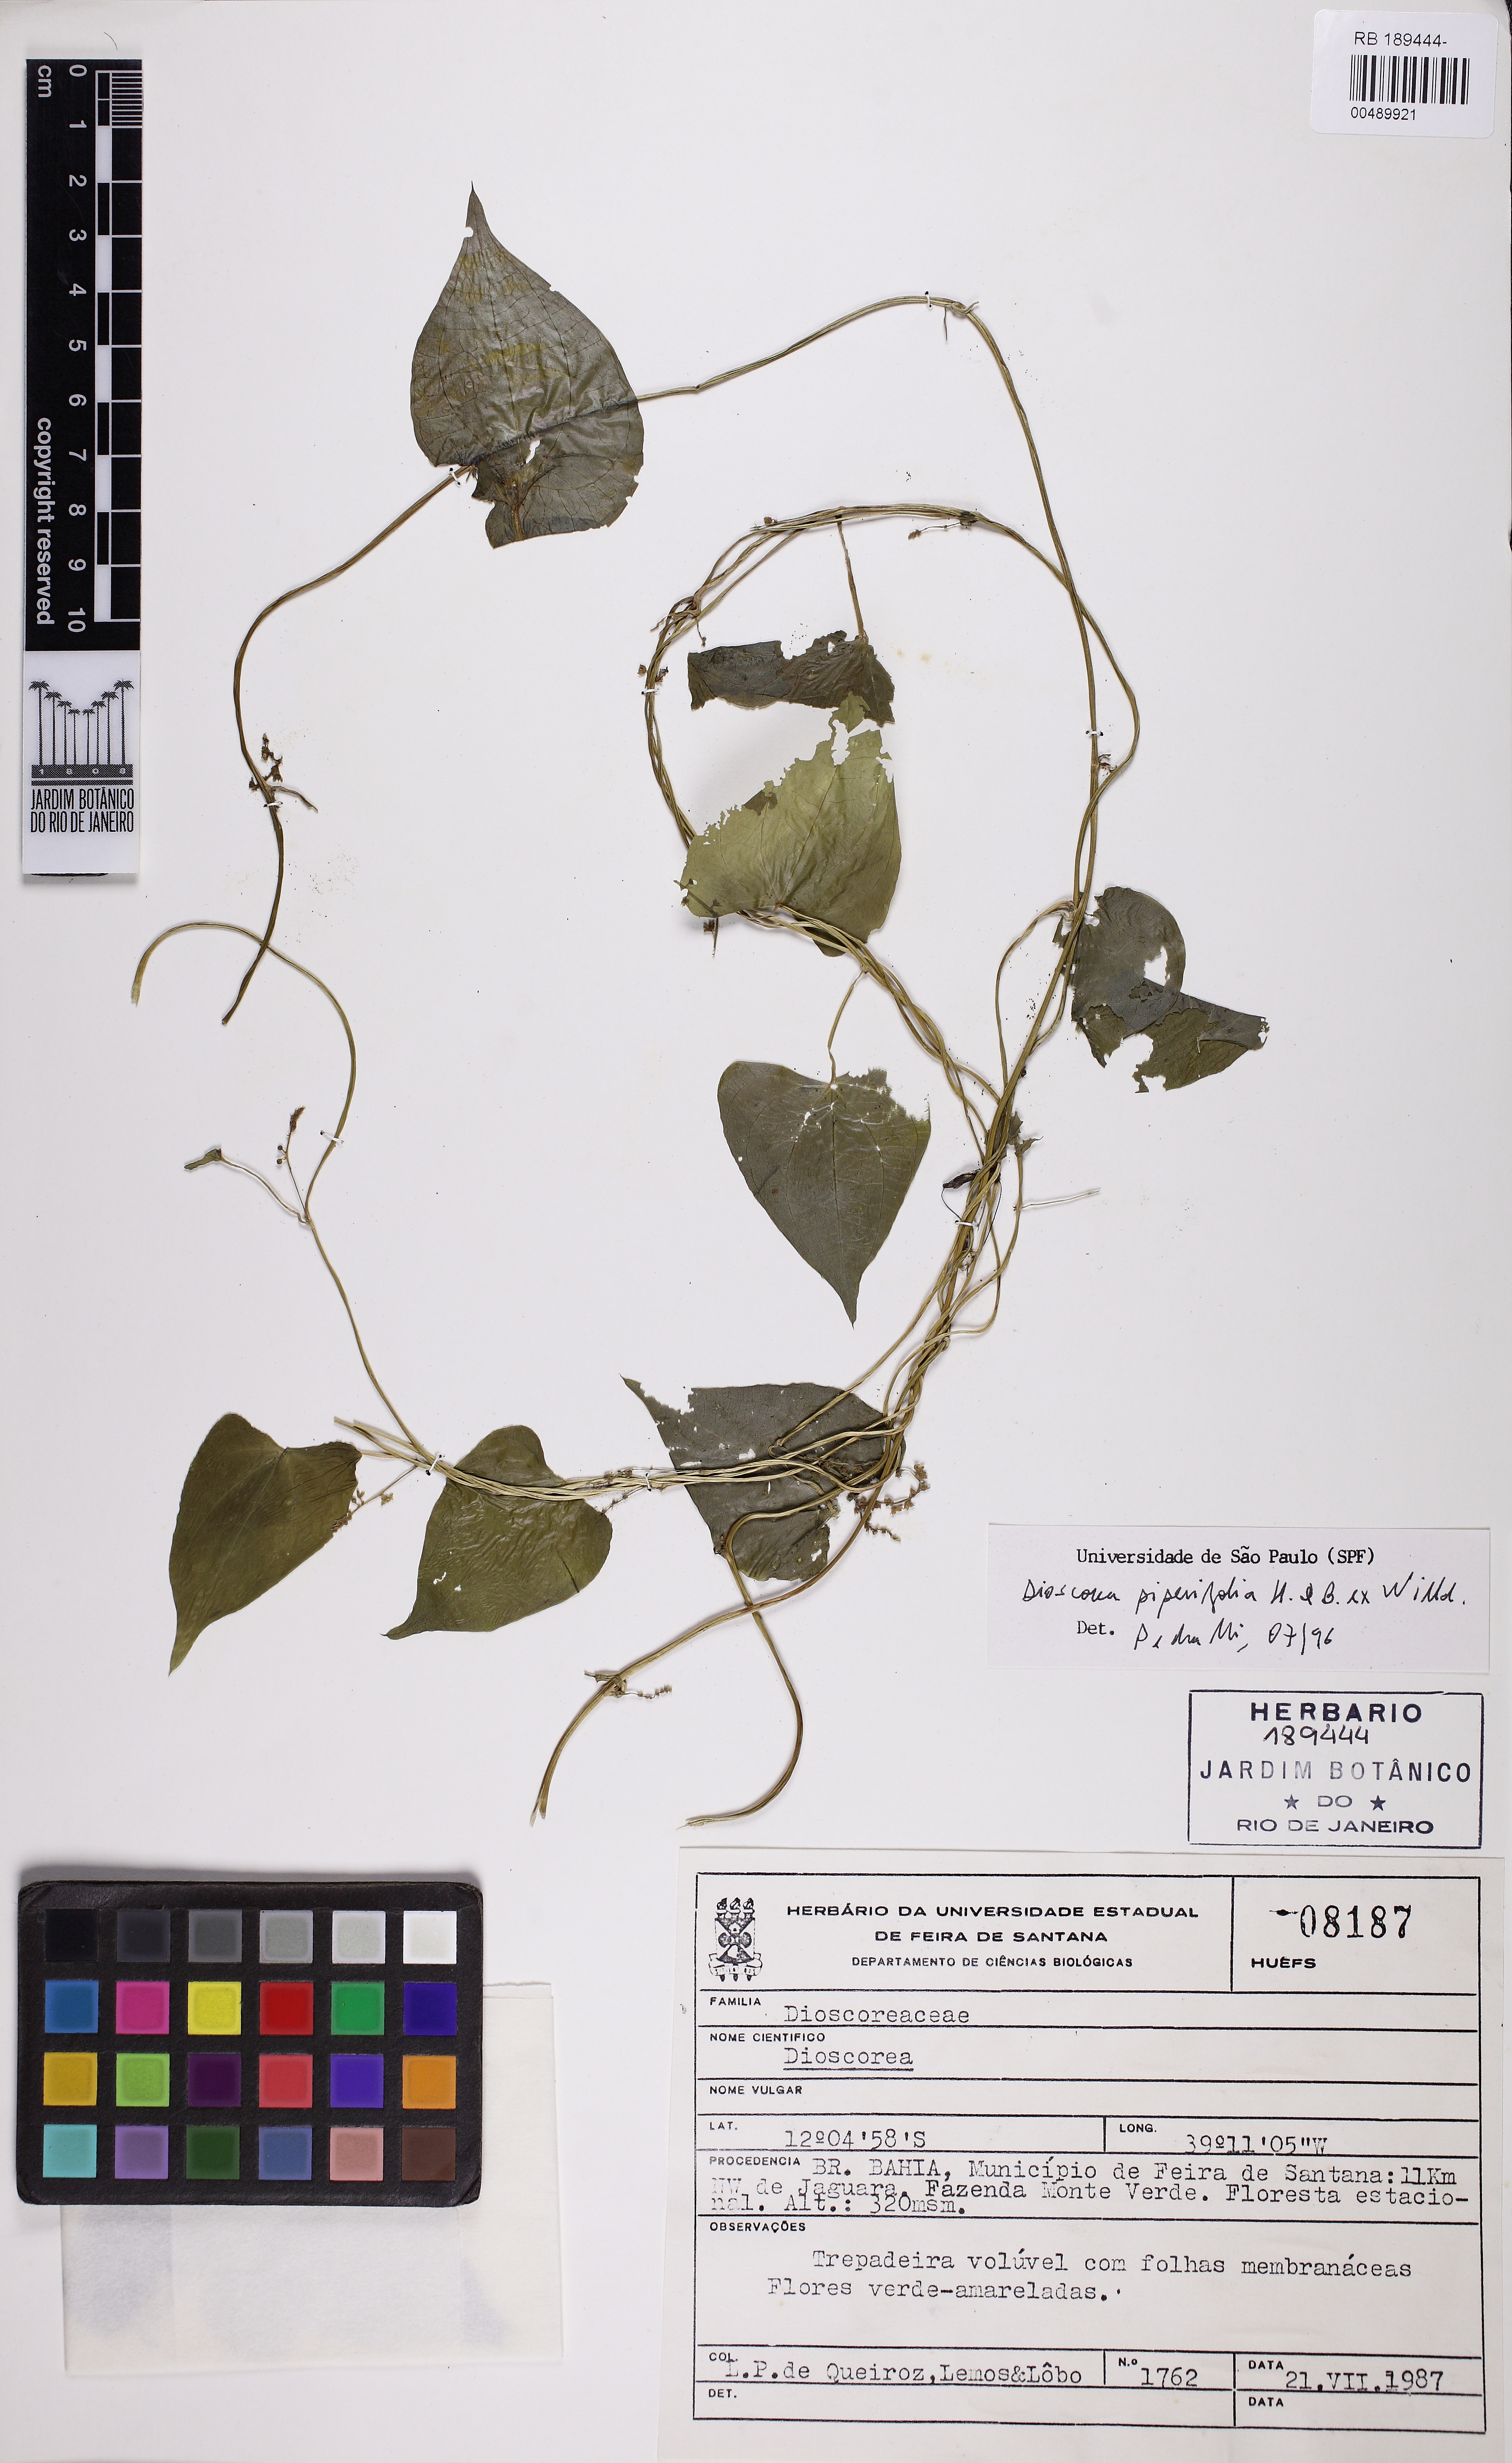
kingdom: Plantae
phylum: Tracheophyta
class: Liliopsida
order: Dioscoreales
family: Dioscoreaceae
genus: Dioscorea
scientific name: Dioscorea piperifolia
